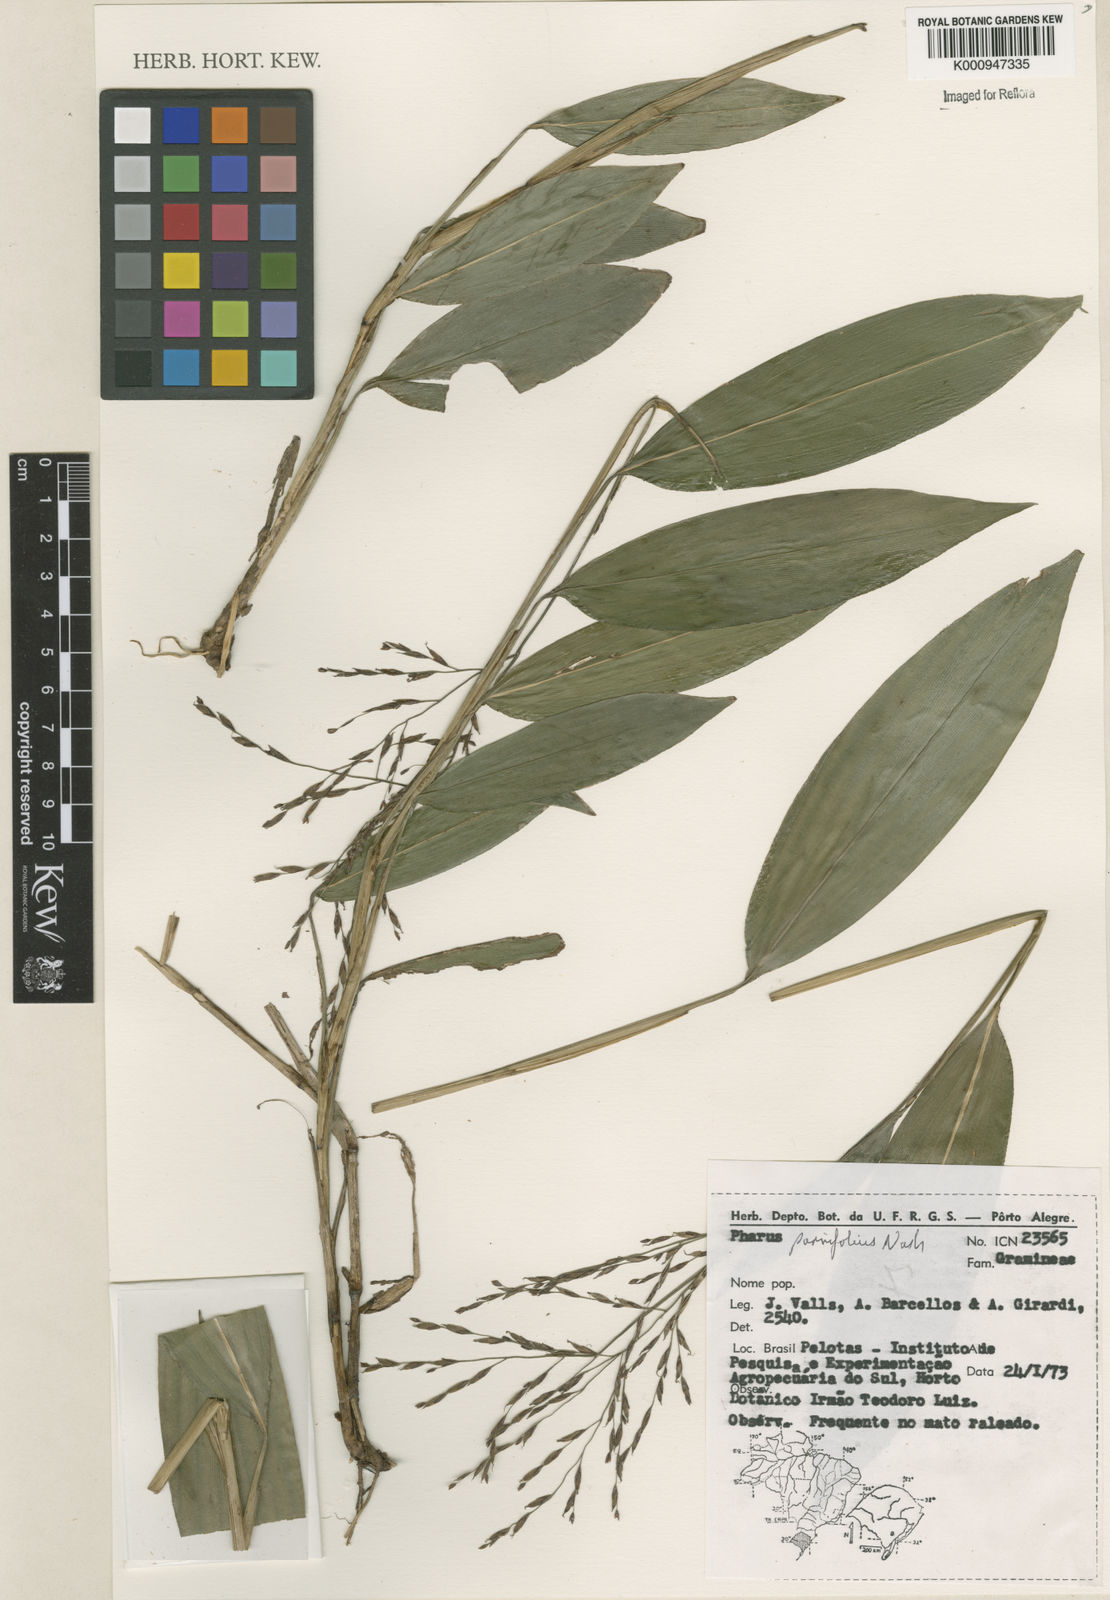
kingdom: Plantae
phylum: Tracheophyta
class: Liliopsida
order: Poales
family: Poaceae
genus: Pharus
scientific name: Pharus
